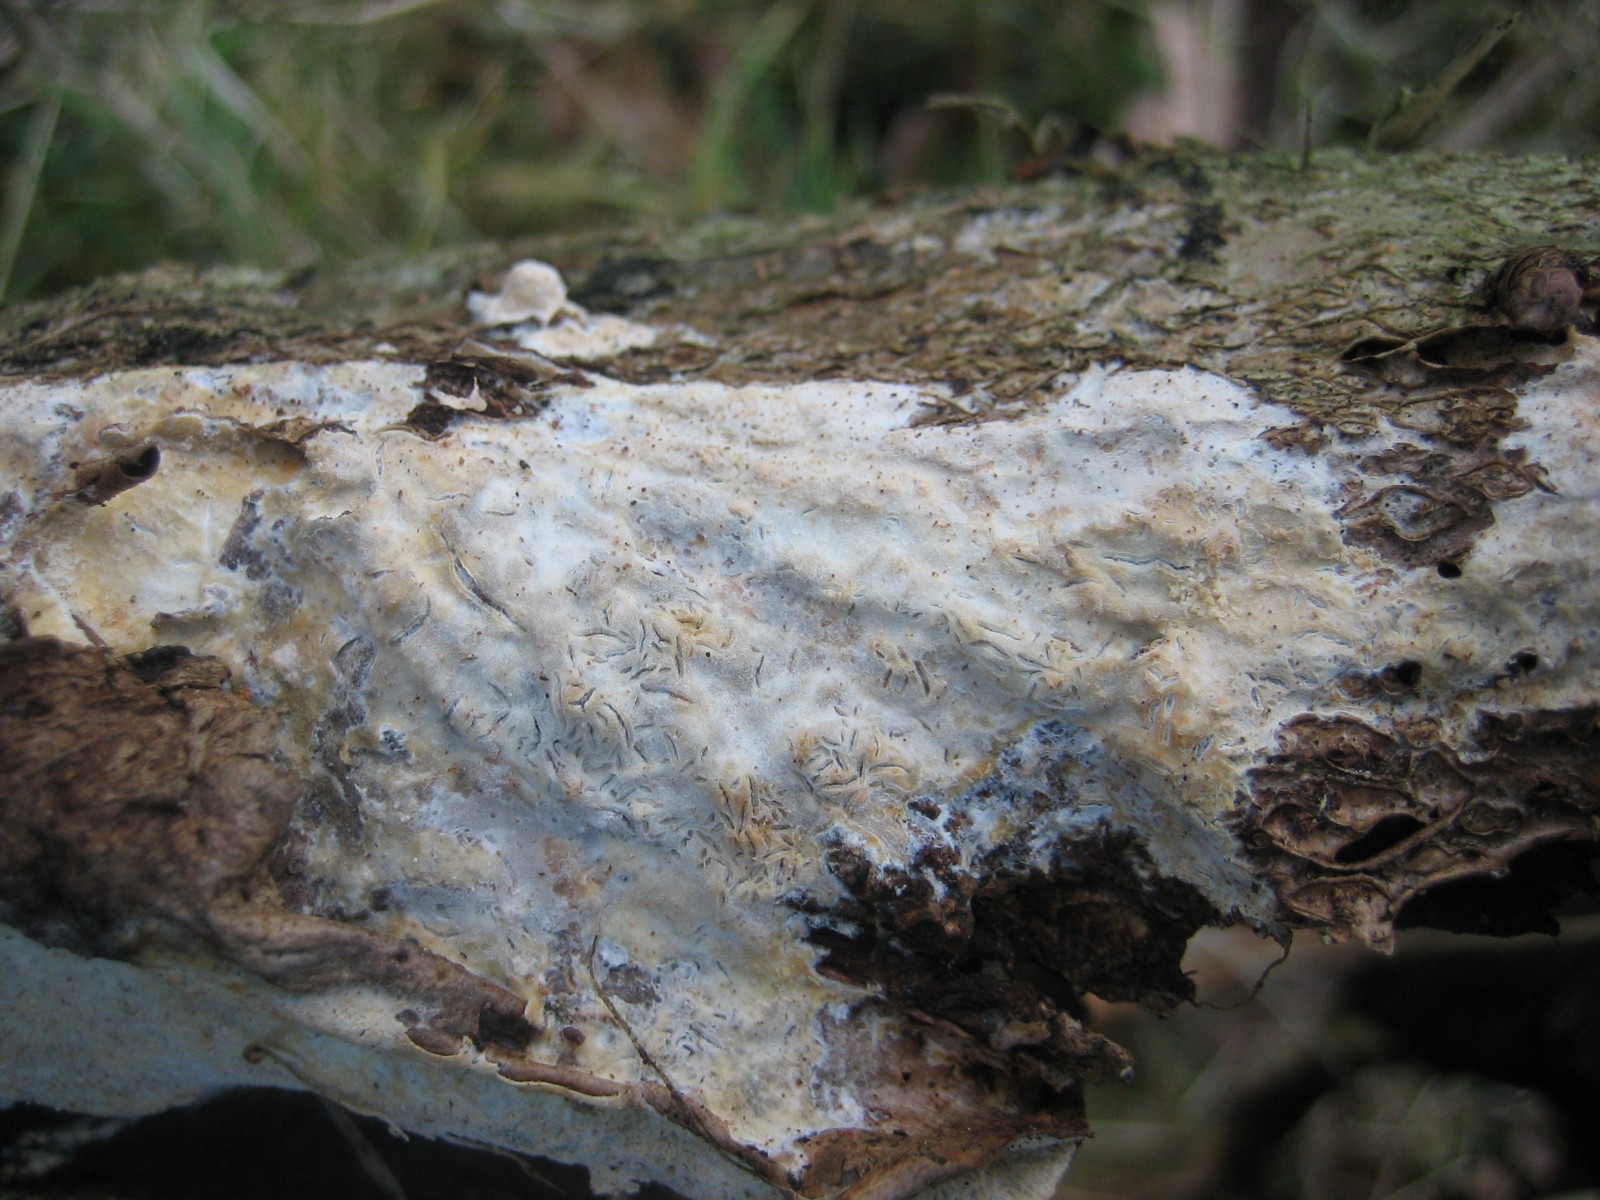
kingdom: Fungi
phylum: Basidiomycota
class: Agaricomycetes
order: Corticiales
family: Corticiaceae
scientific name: Corticiaceae
